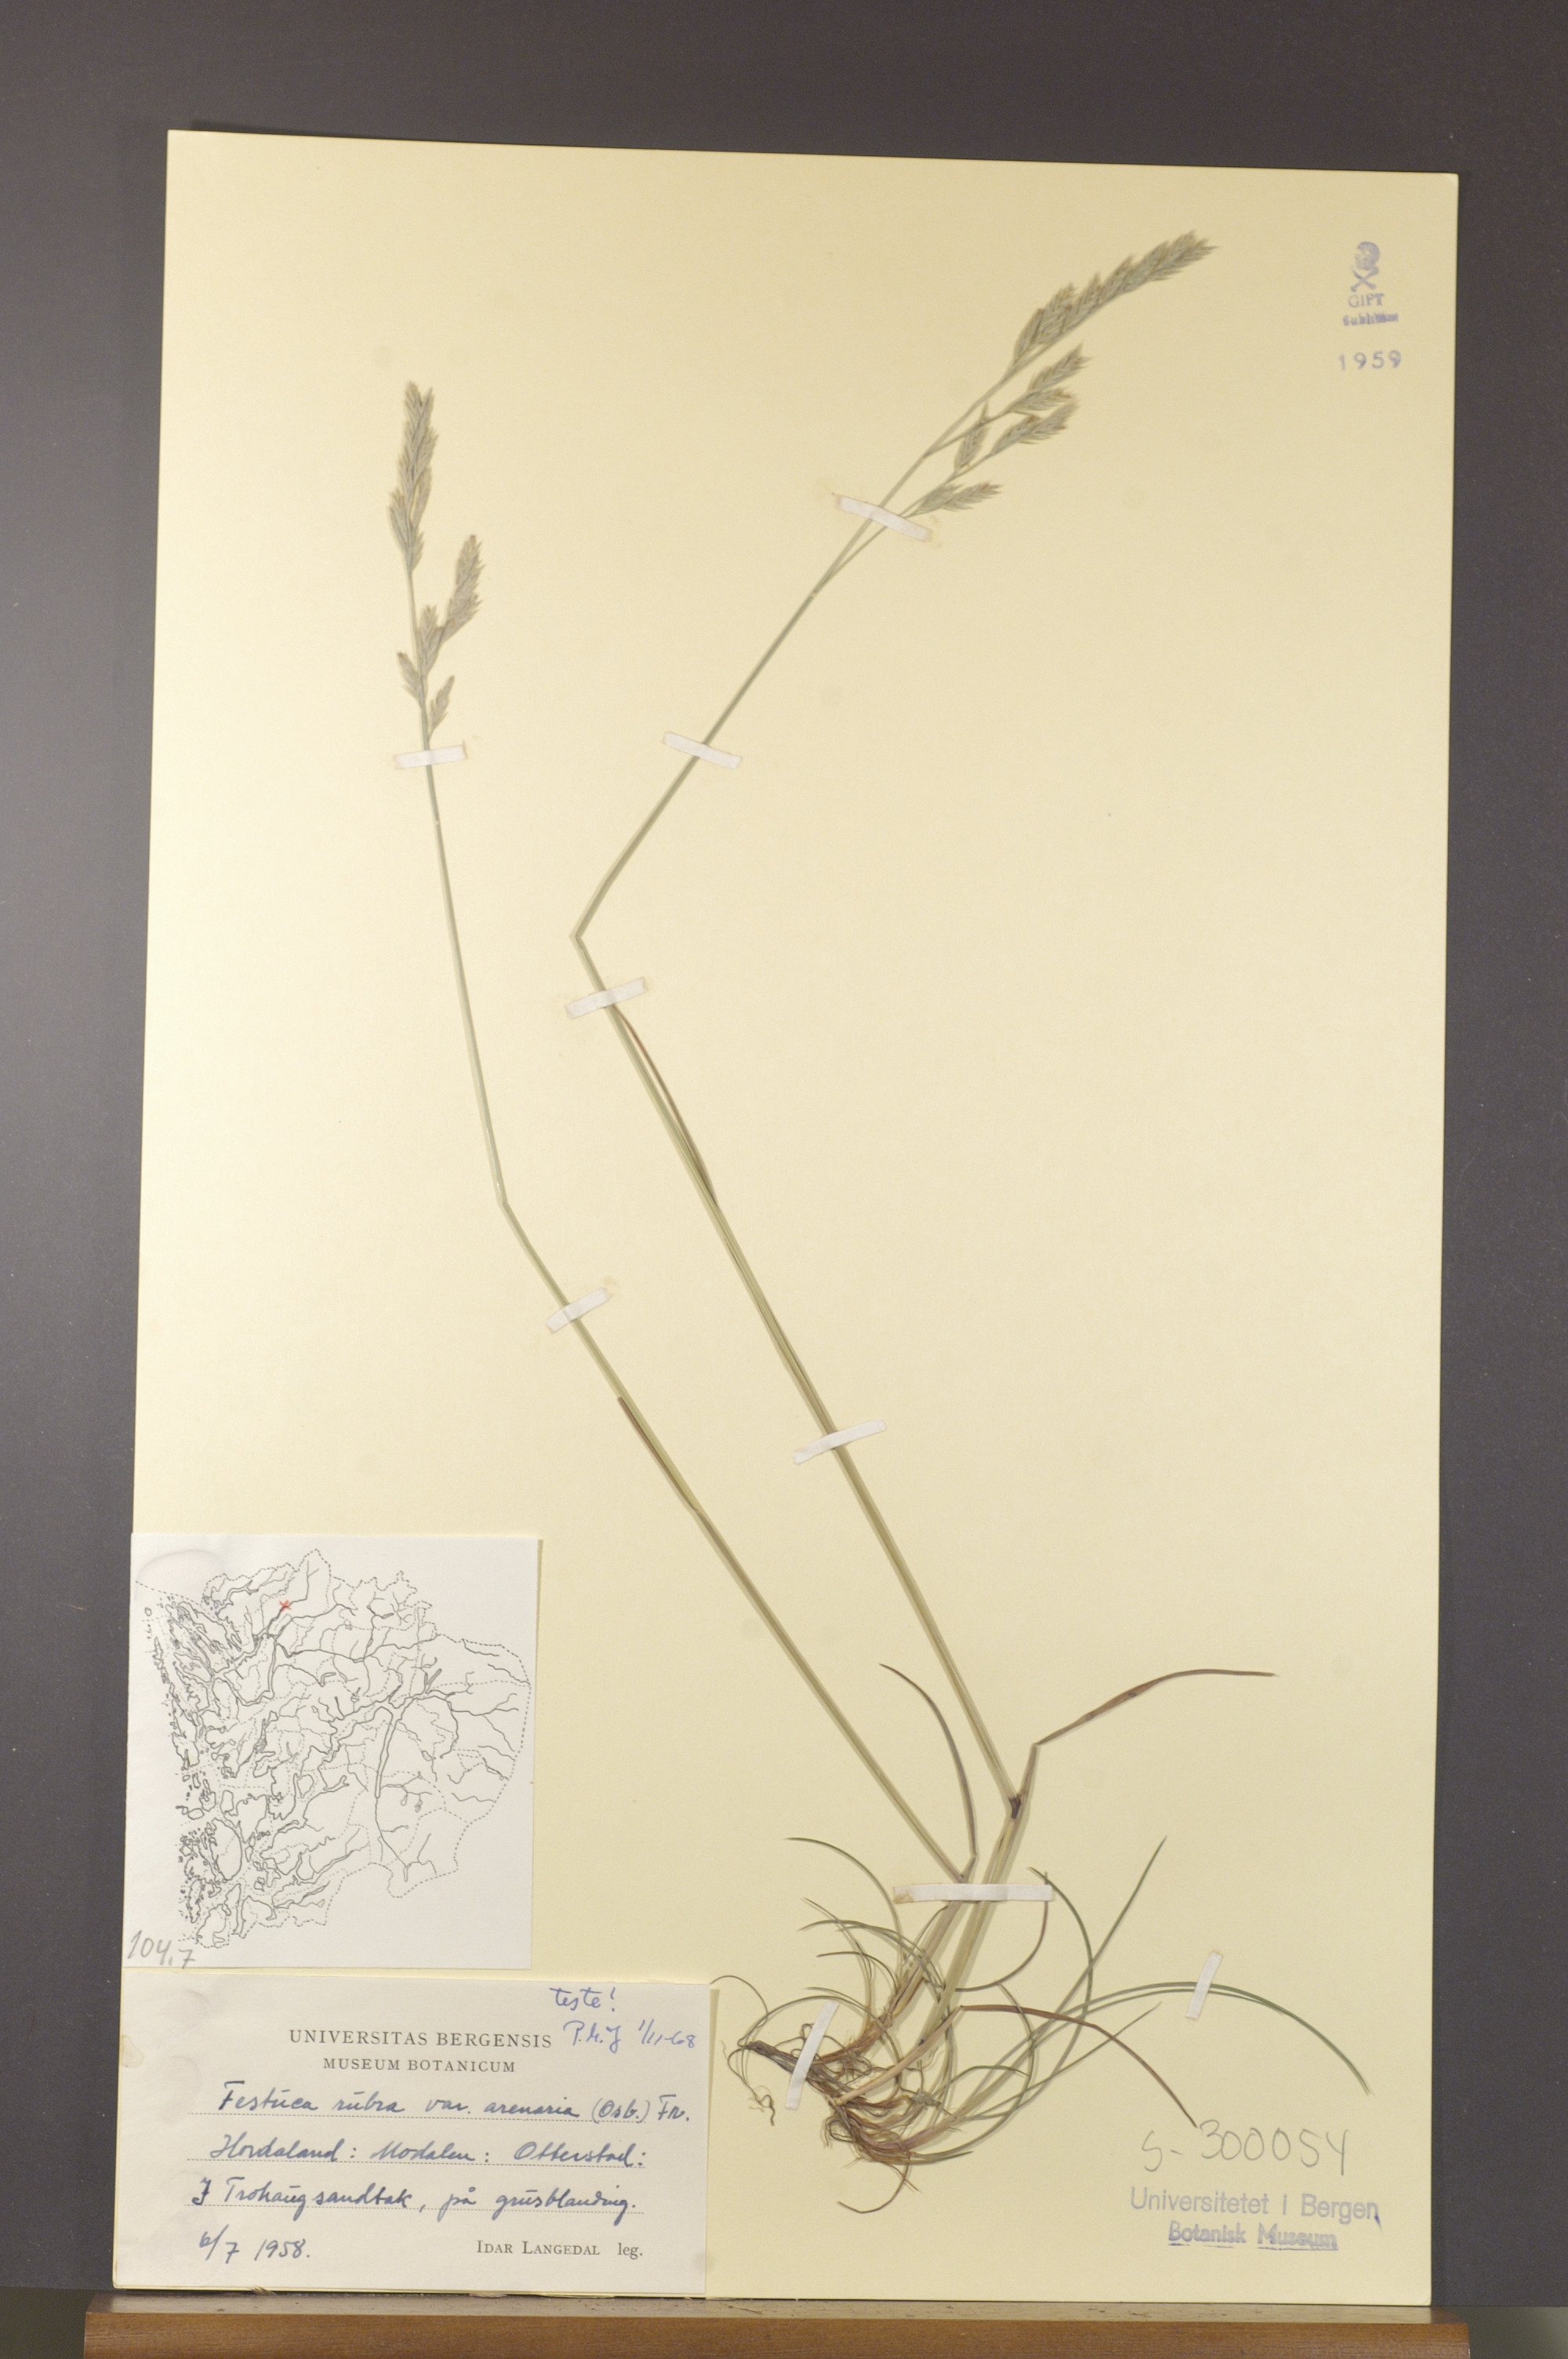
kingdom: Plantae
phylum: Tracheophyta
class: Liliopsida
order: Poales
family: Poaceae
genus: Festuca
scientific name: Festuca rubra
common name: Red fescue
